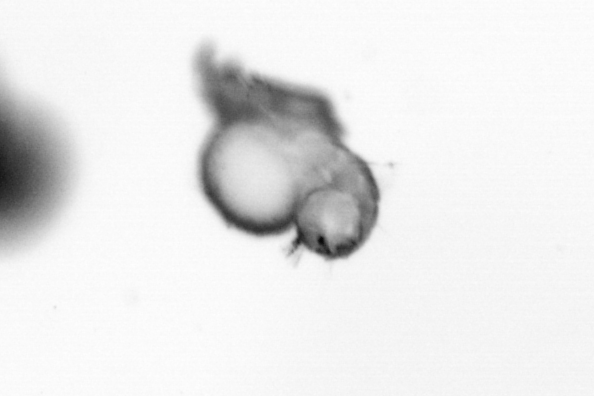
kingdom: Animalia
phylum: Annelida
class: Polychaeta
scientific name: Polychaeta
